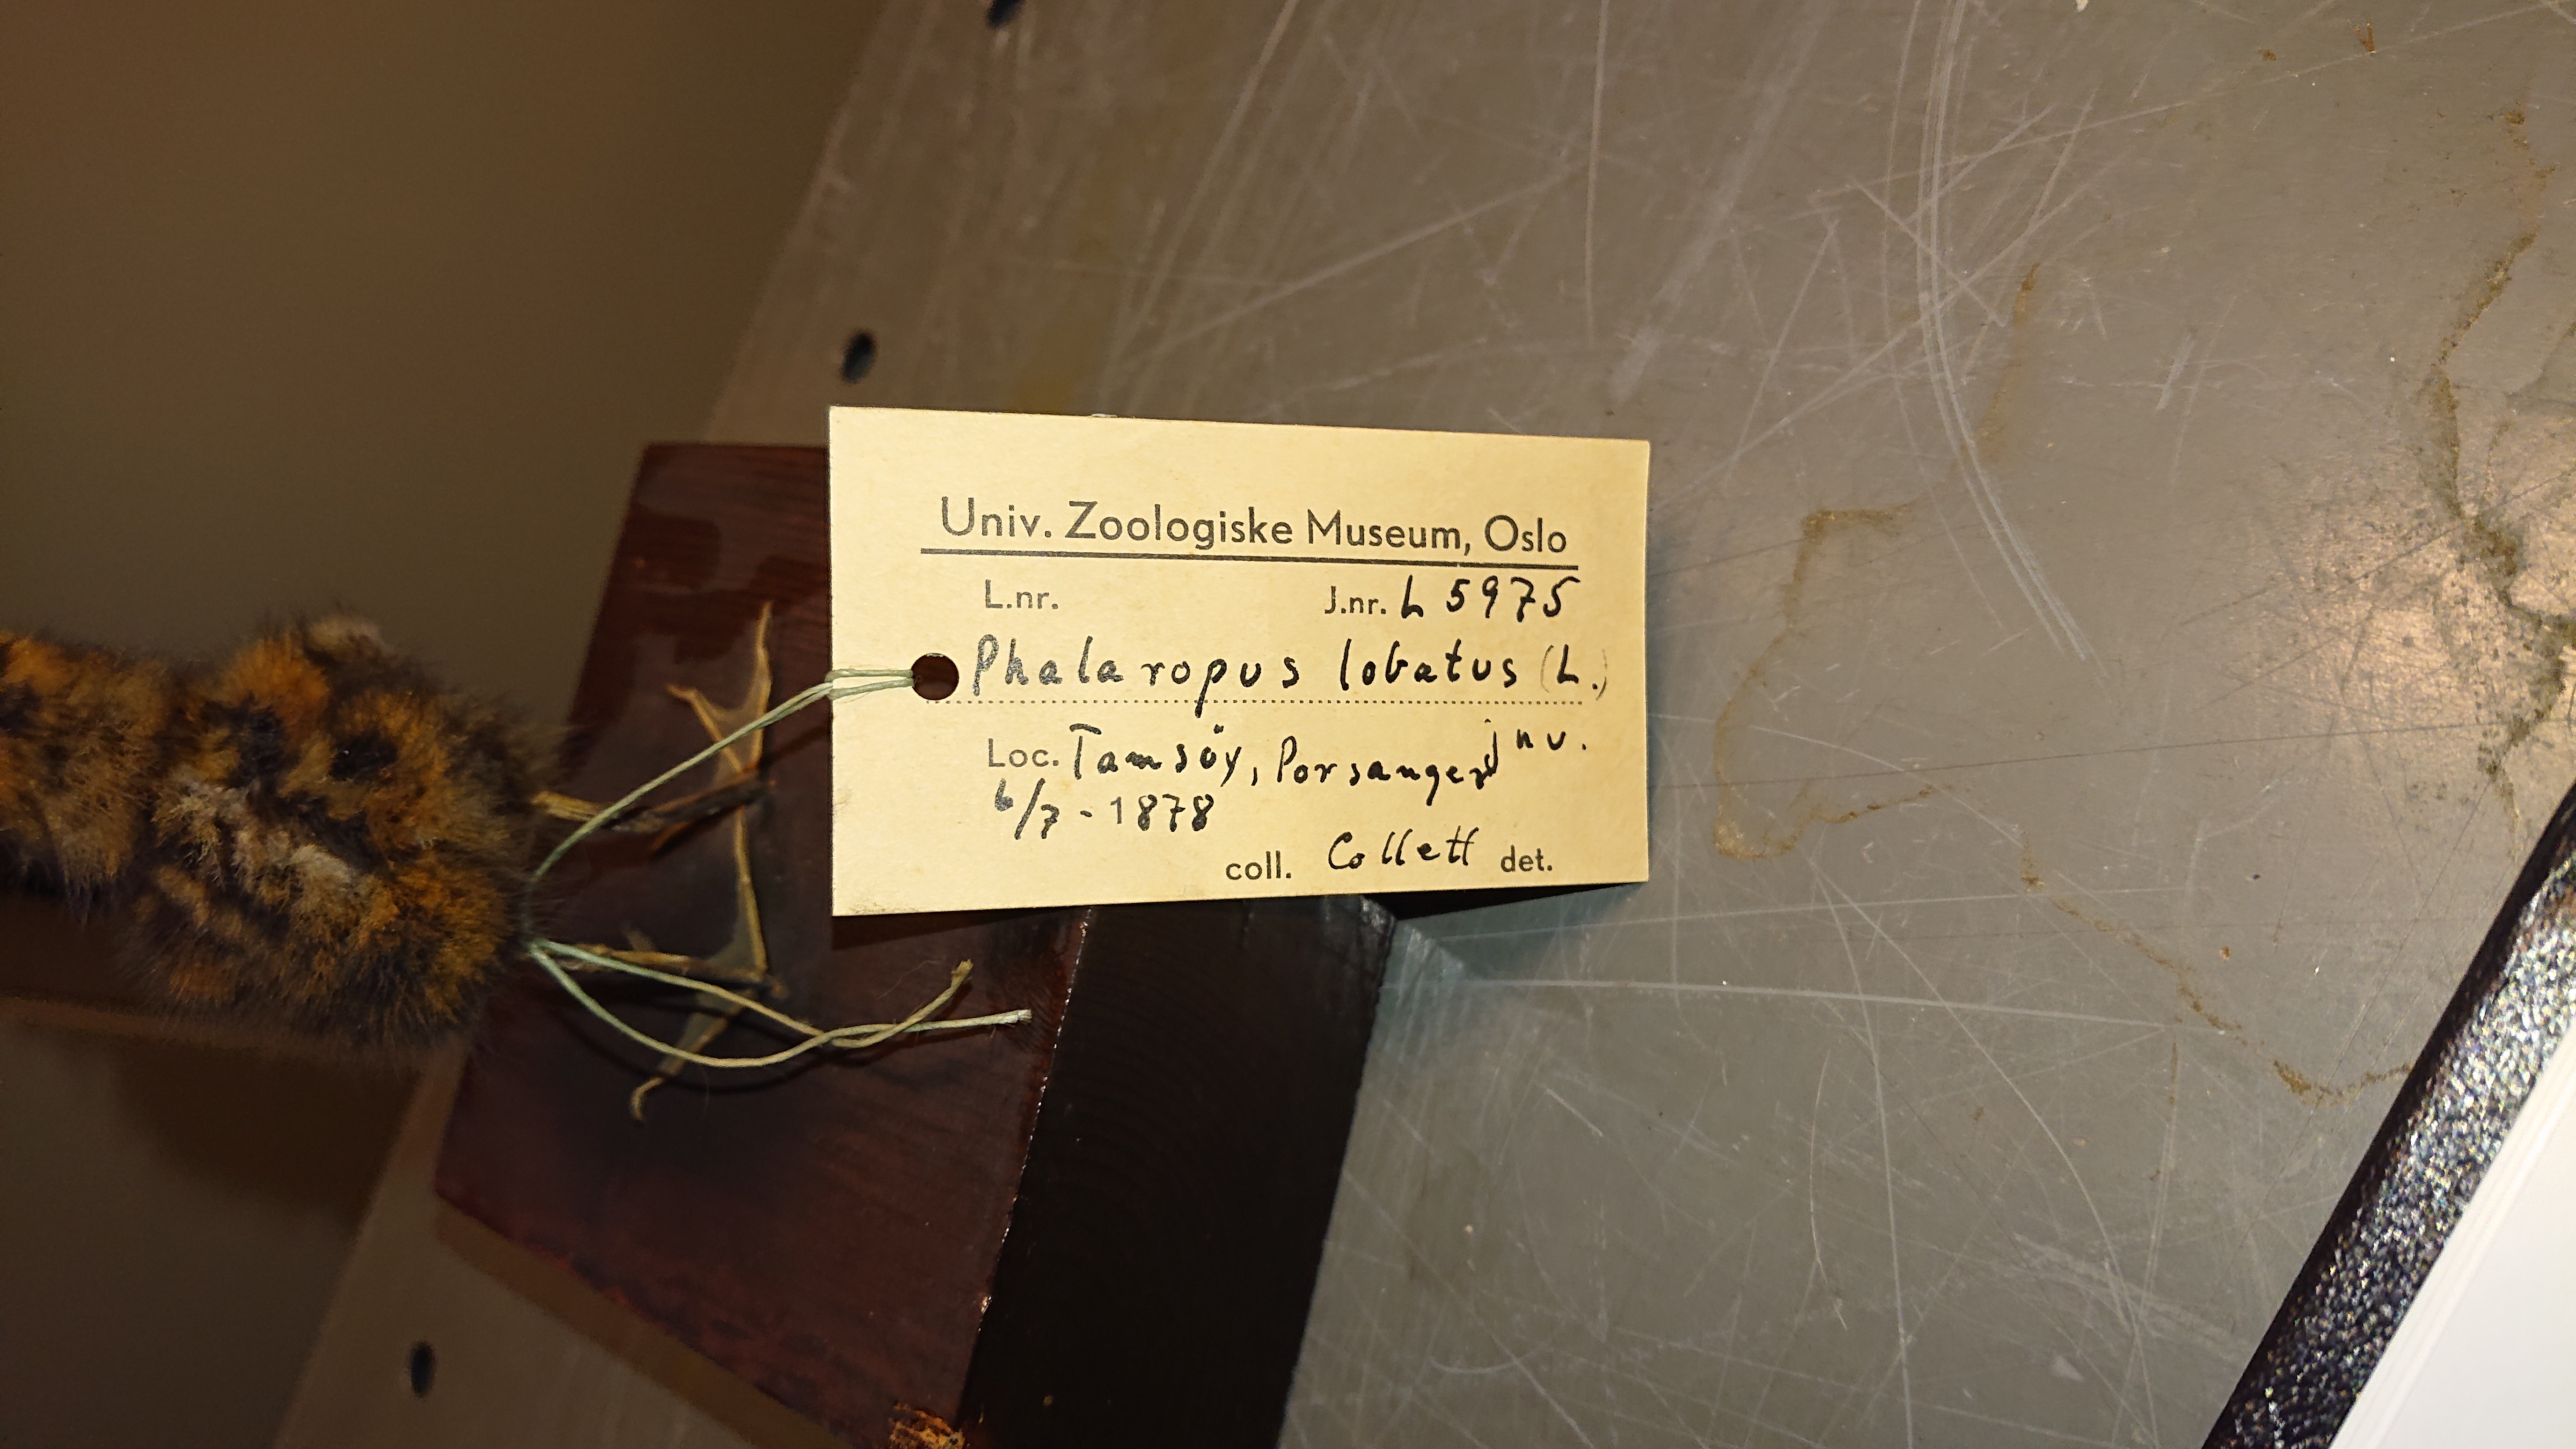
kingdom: Animalia
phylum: Chordata
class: Aves
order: Charadriiformes
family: Scolopacidae
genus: Phalaropus
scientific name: Phalaropus lobatus
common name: Red-necked phalarope
